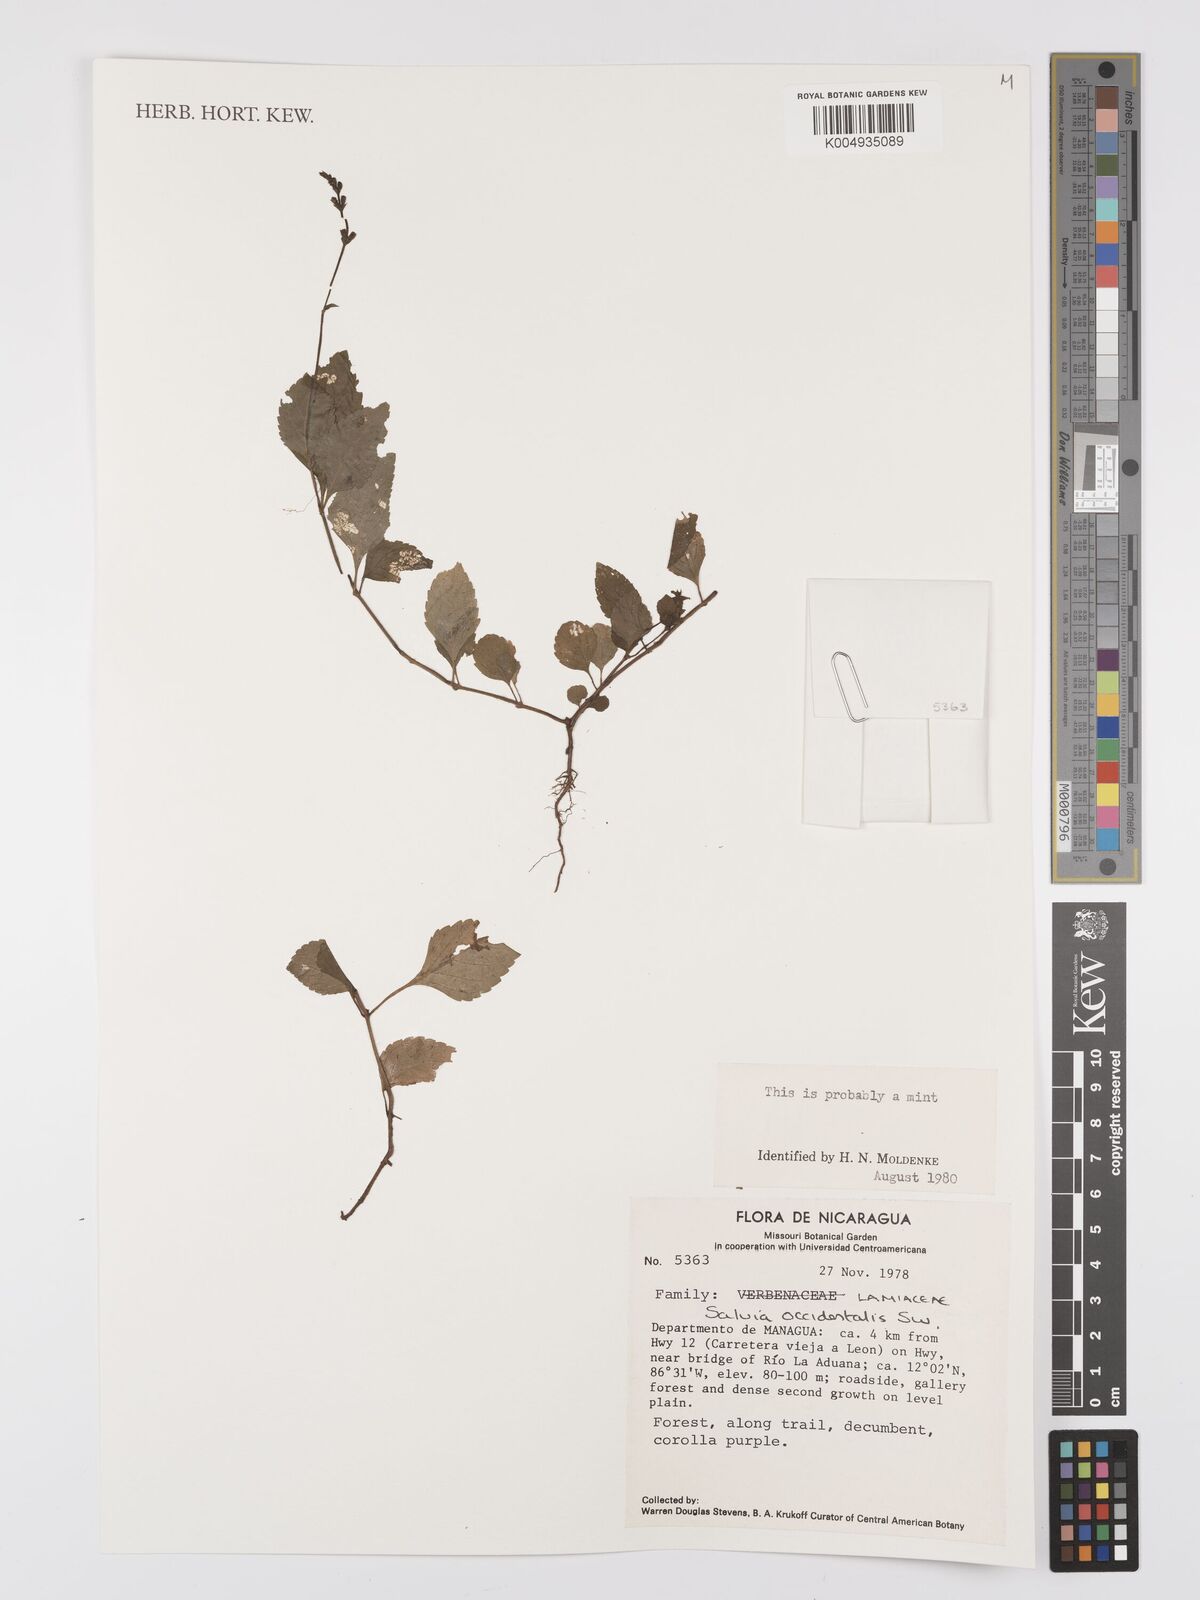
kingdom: Plantae
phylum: Tracheophyta
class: Magnoliopsida
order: Lamiales
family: Lamiaceae
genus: Salvia
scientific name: Salvia occidentalis
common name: West indian sage
